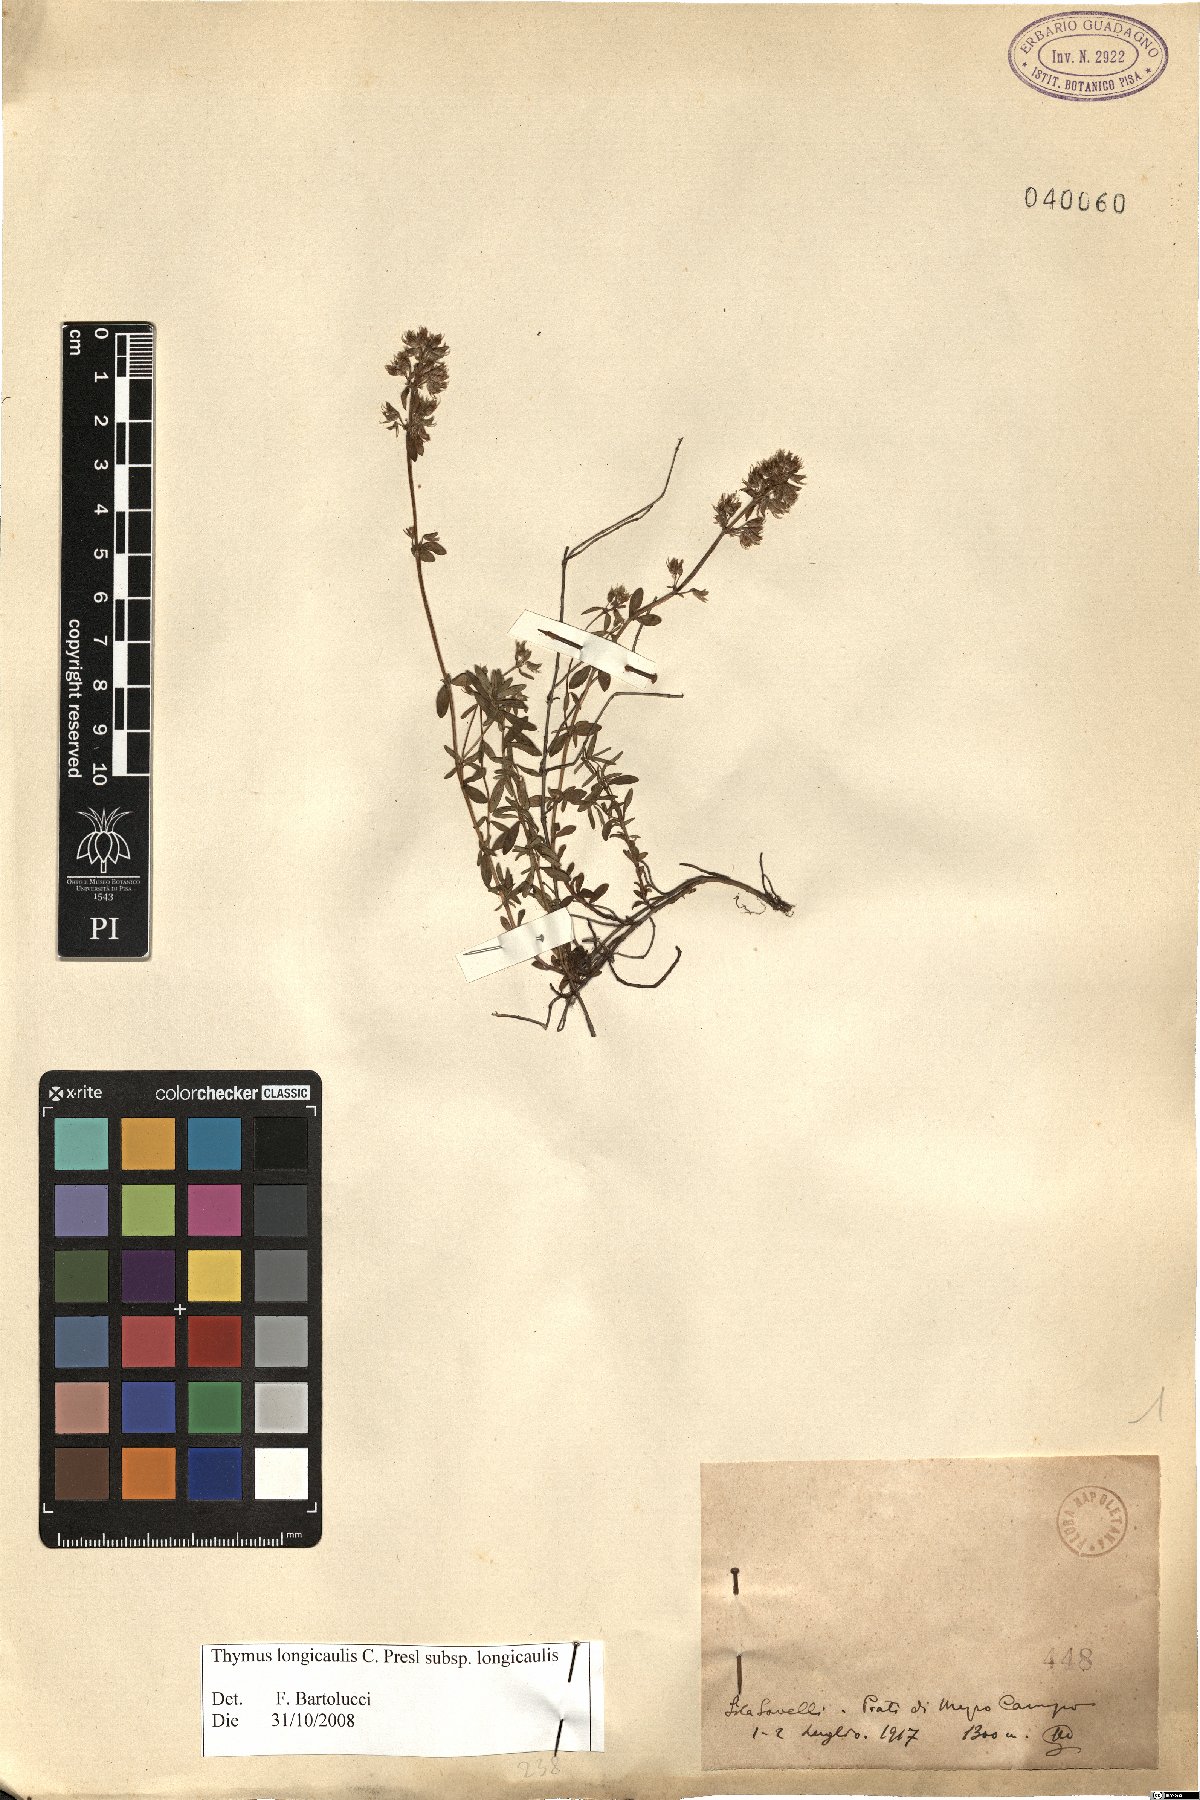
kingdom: Plantae
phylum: Tracheophyta
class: Magnoliopsida
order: Lamiales
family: Lamiaceae
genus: Thymus
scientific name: Thymus longicaulis
